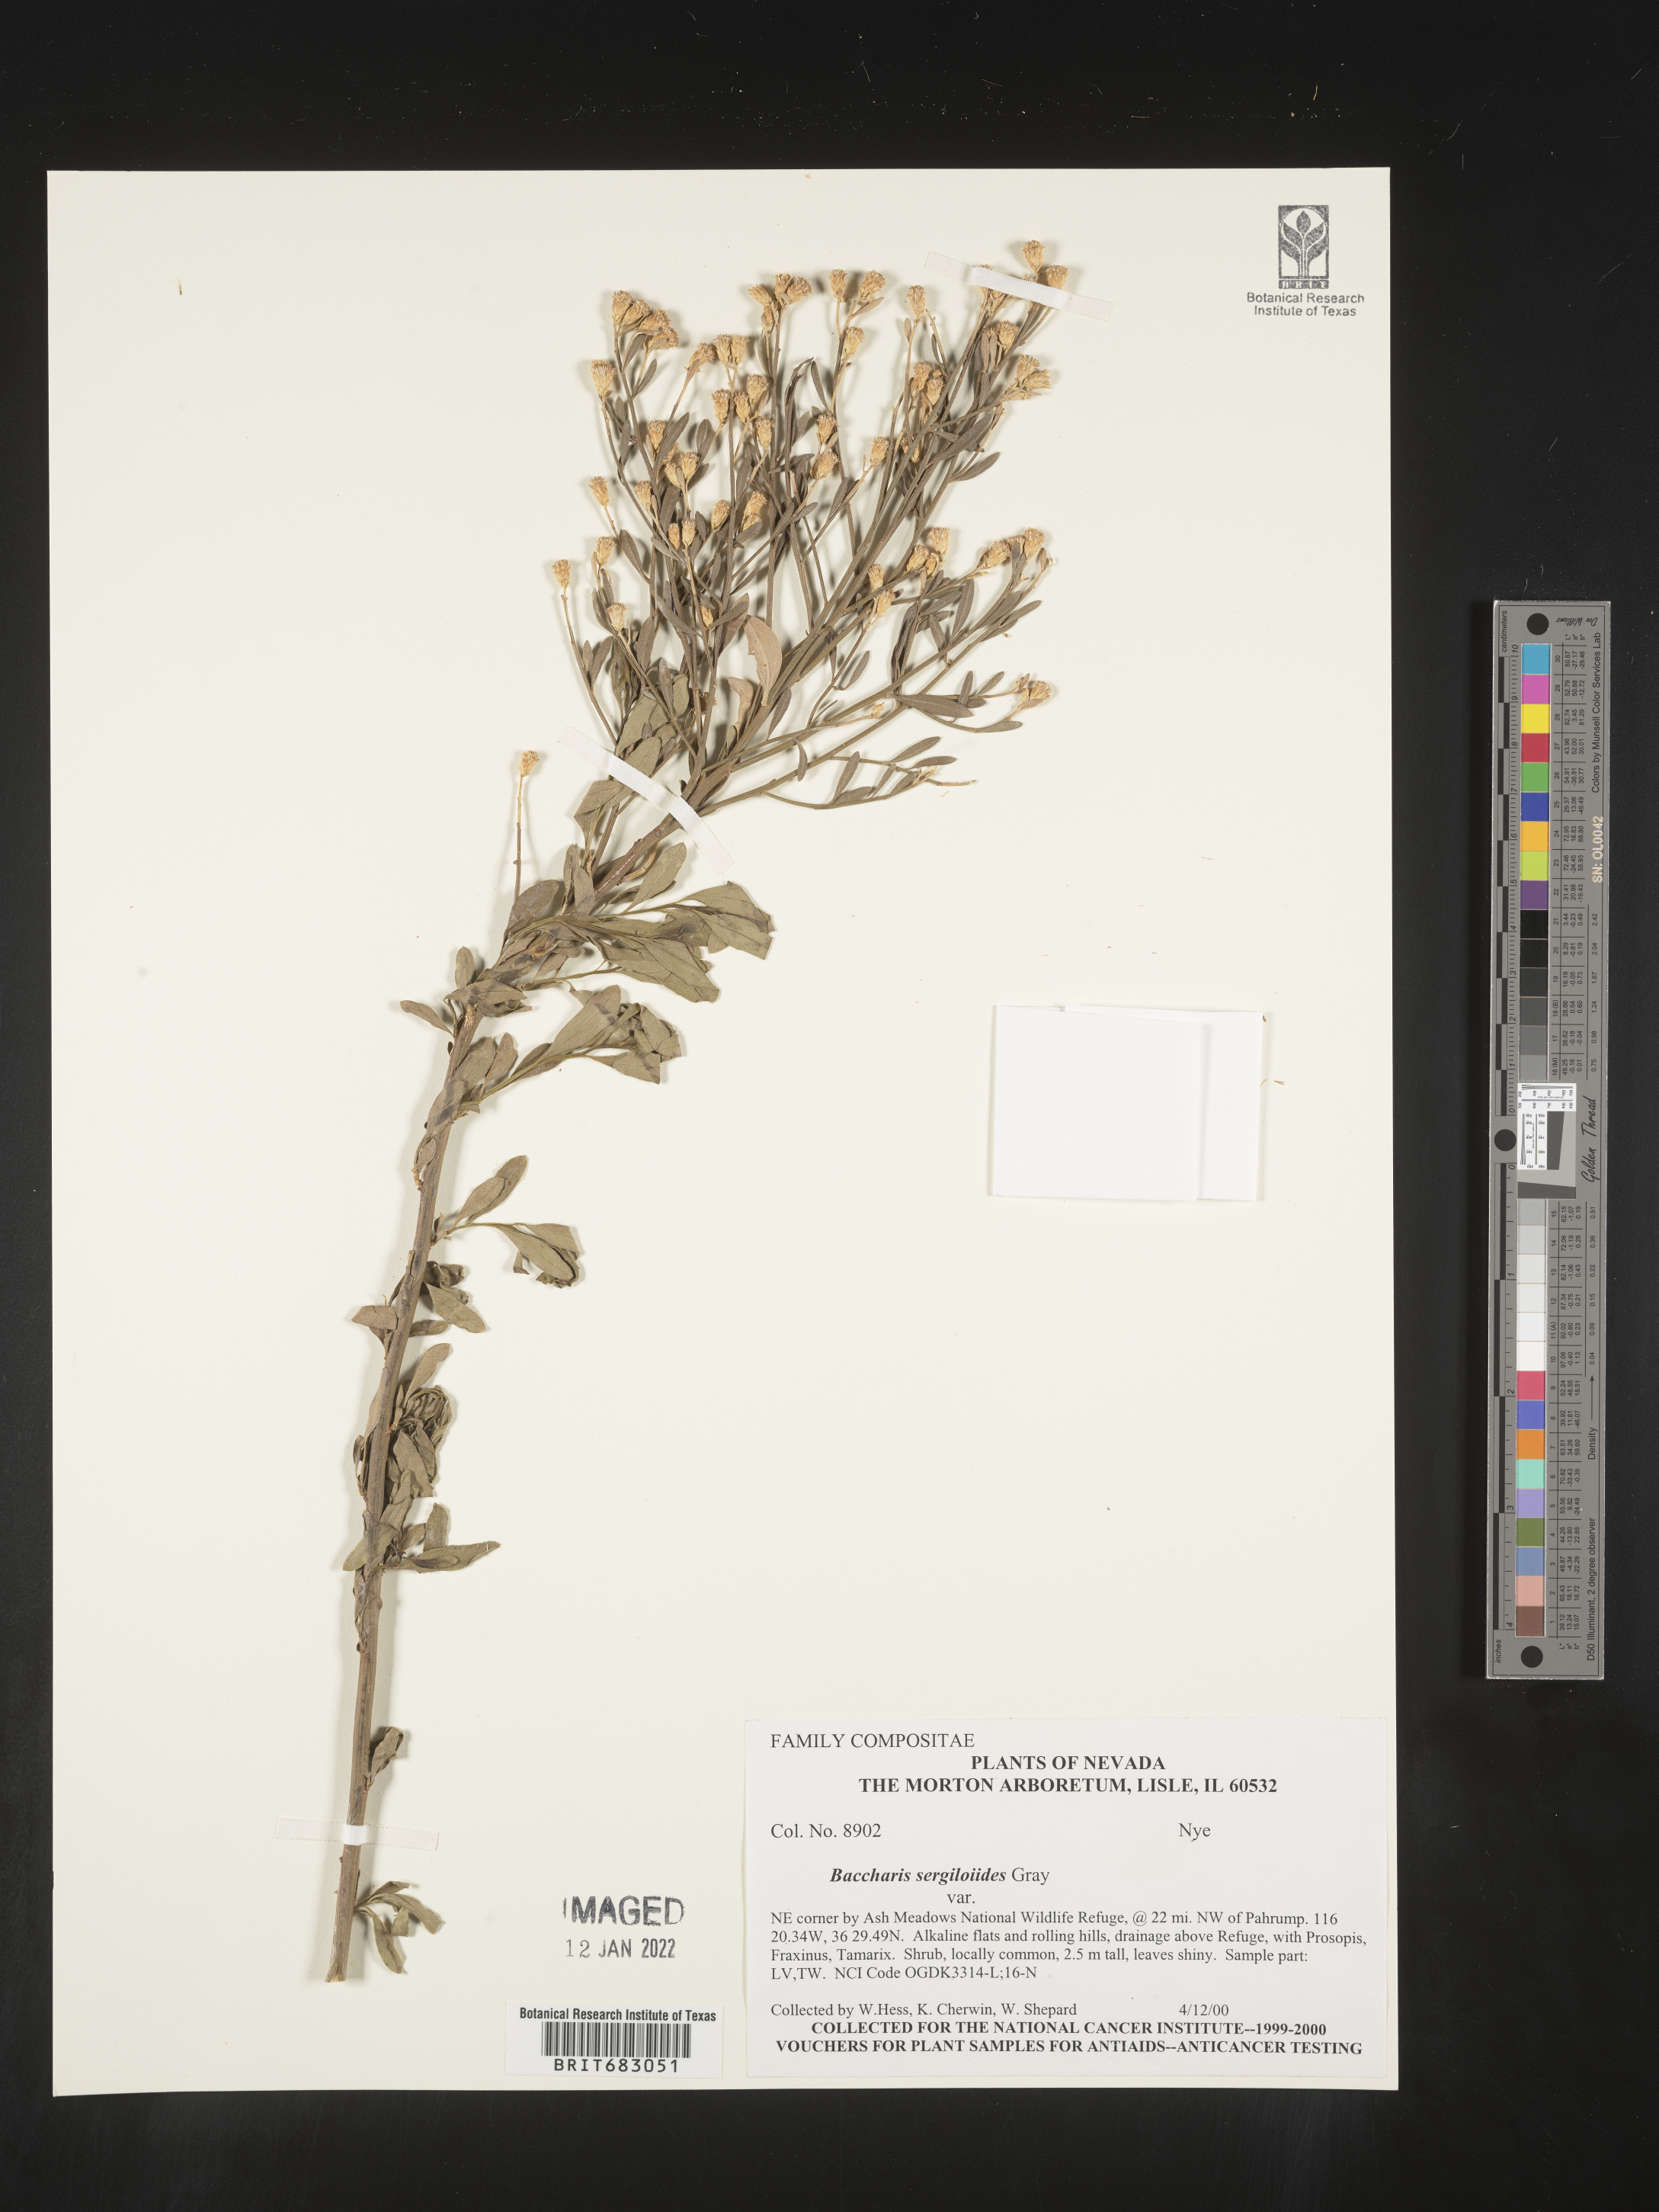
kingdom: Plantae
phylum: Tracheophyta
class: Magnoliopsida
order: Asterales
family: Asteraceae
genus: Baccharis
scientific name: Baccharis sergiloides
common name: Desert baccharis
